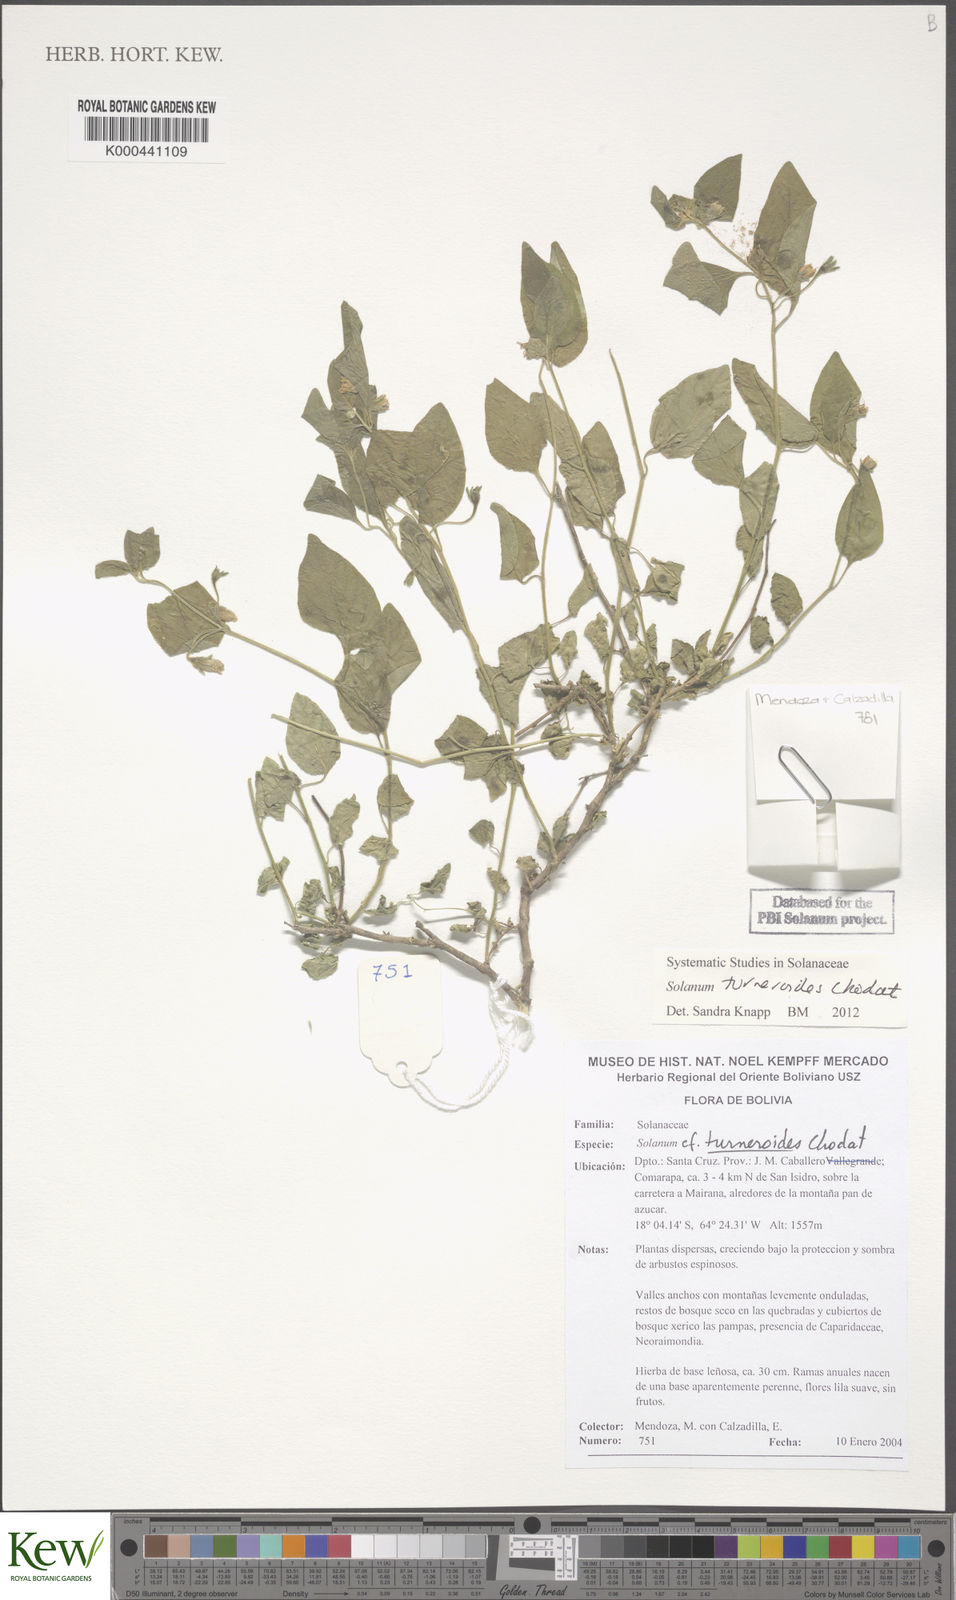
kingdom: Plantae
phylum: Tracheophyta
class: Magnoliopsida
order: Solanales
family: Solanaceae
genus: Solanum
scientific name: Solanum turneroides
